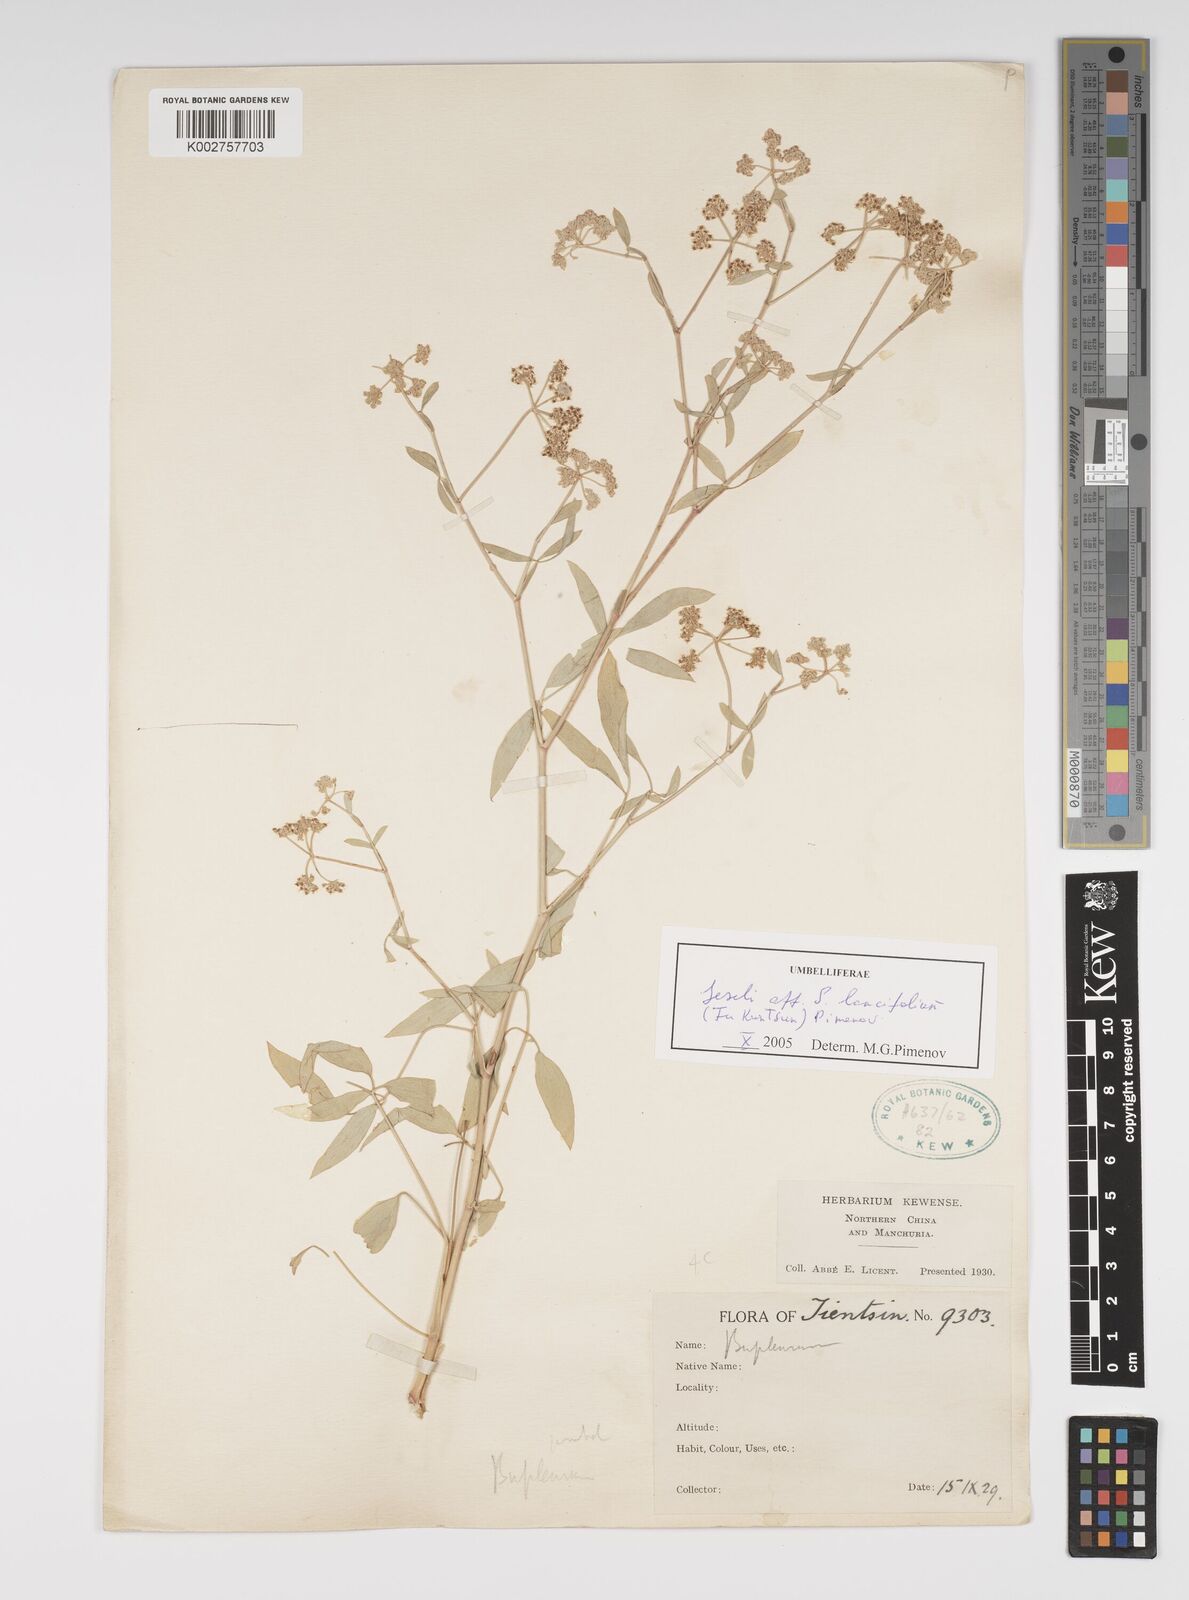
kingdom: Plantae
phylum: Tracheophyta
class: Magnoliopsida
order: Apiales
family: Apiaceae
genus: Seseli
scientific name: Seseli lancifolium
